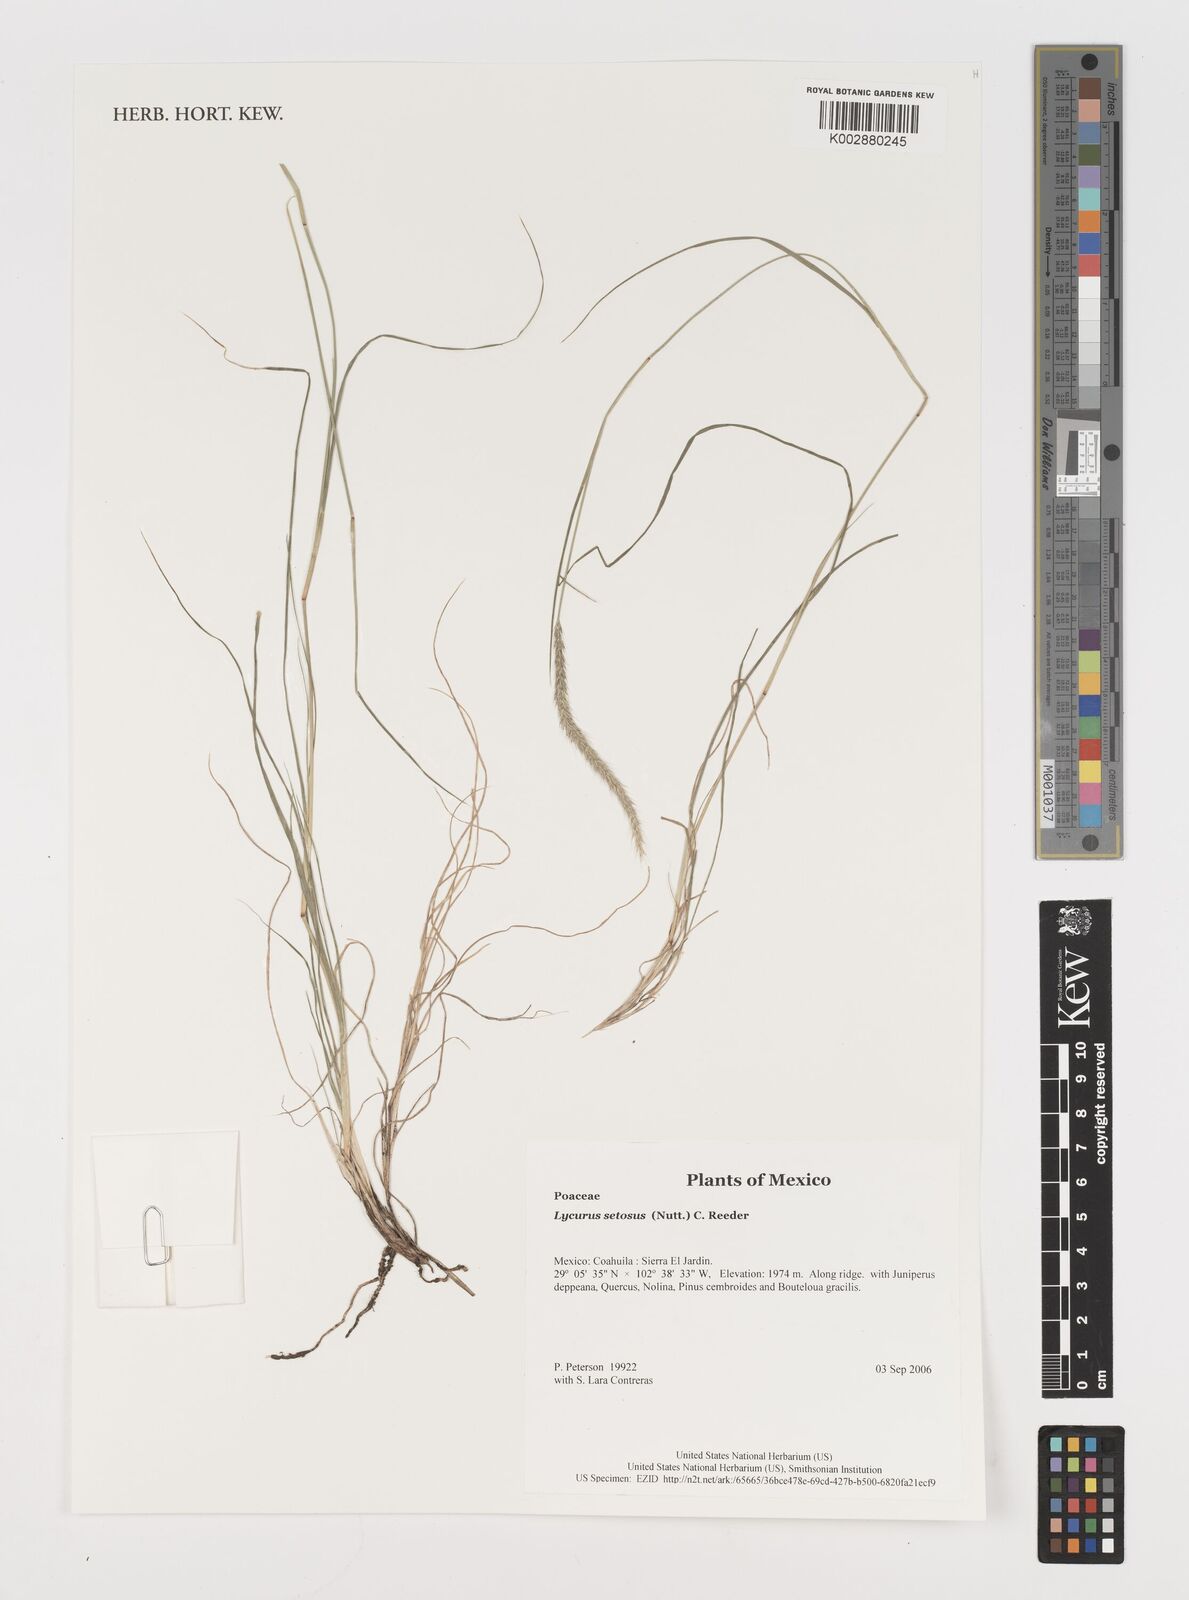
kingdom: Plantae
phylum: Tracheophyta
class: Liliopsida
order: Poales
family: Poaceae
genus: Muhlenbergia
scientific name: Muhlenbergia alopecuroides
